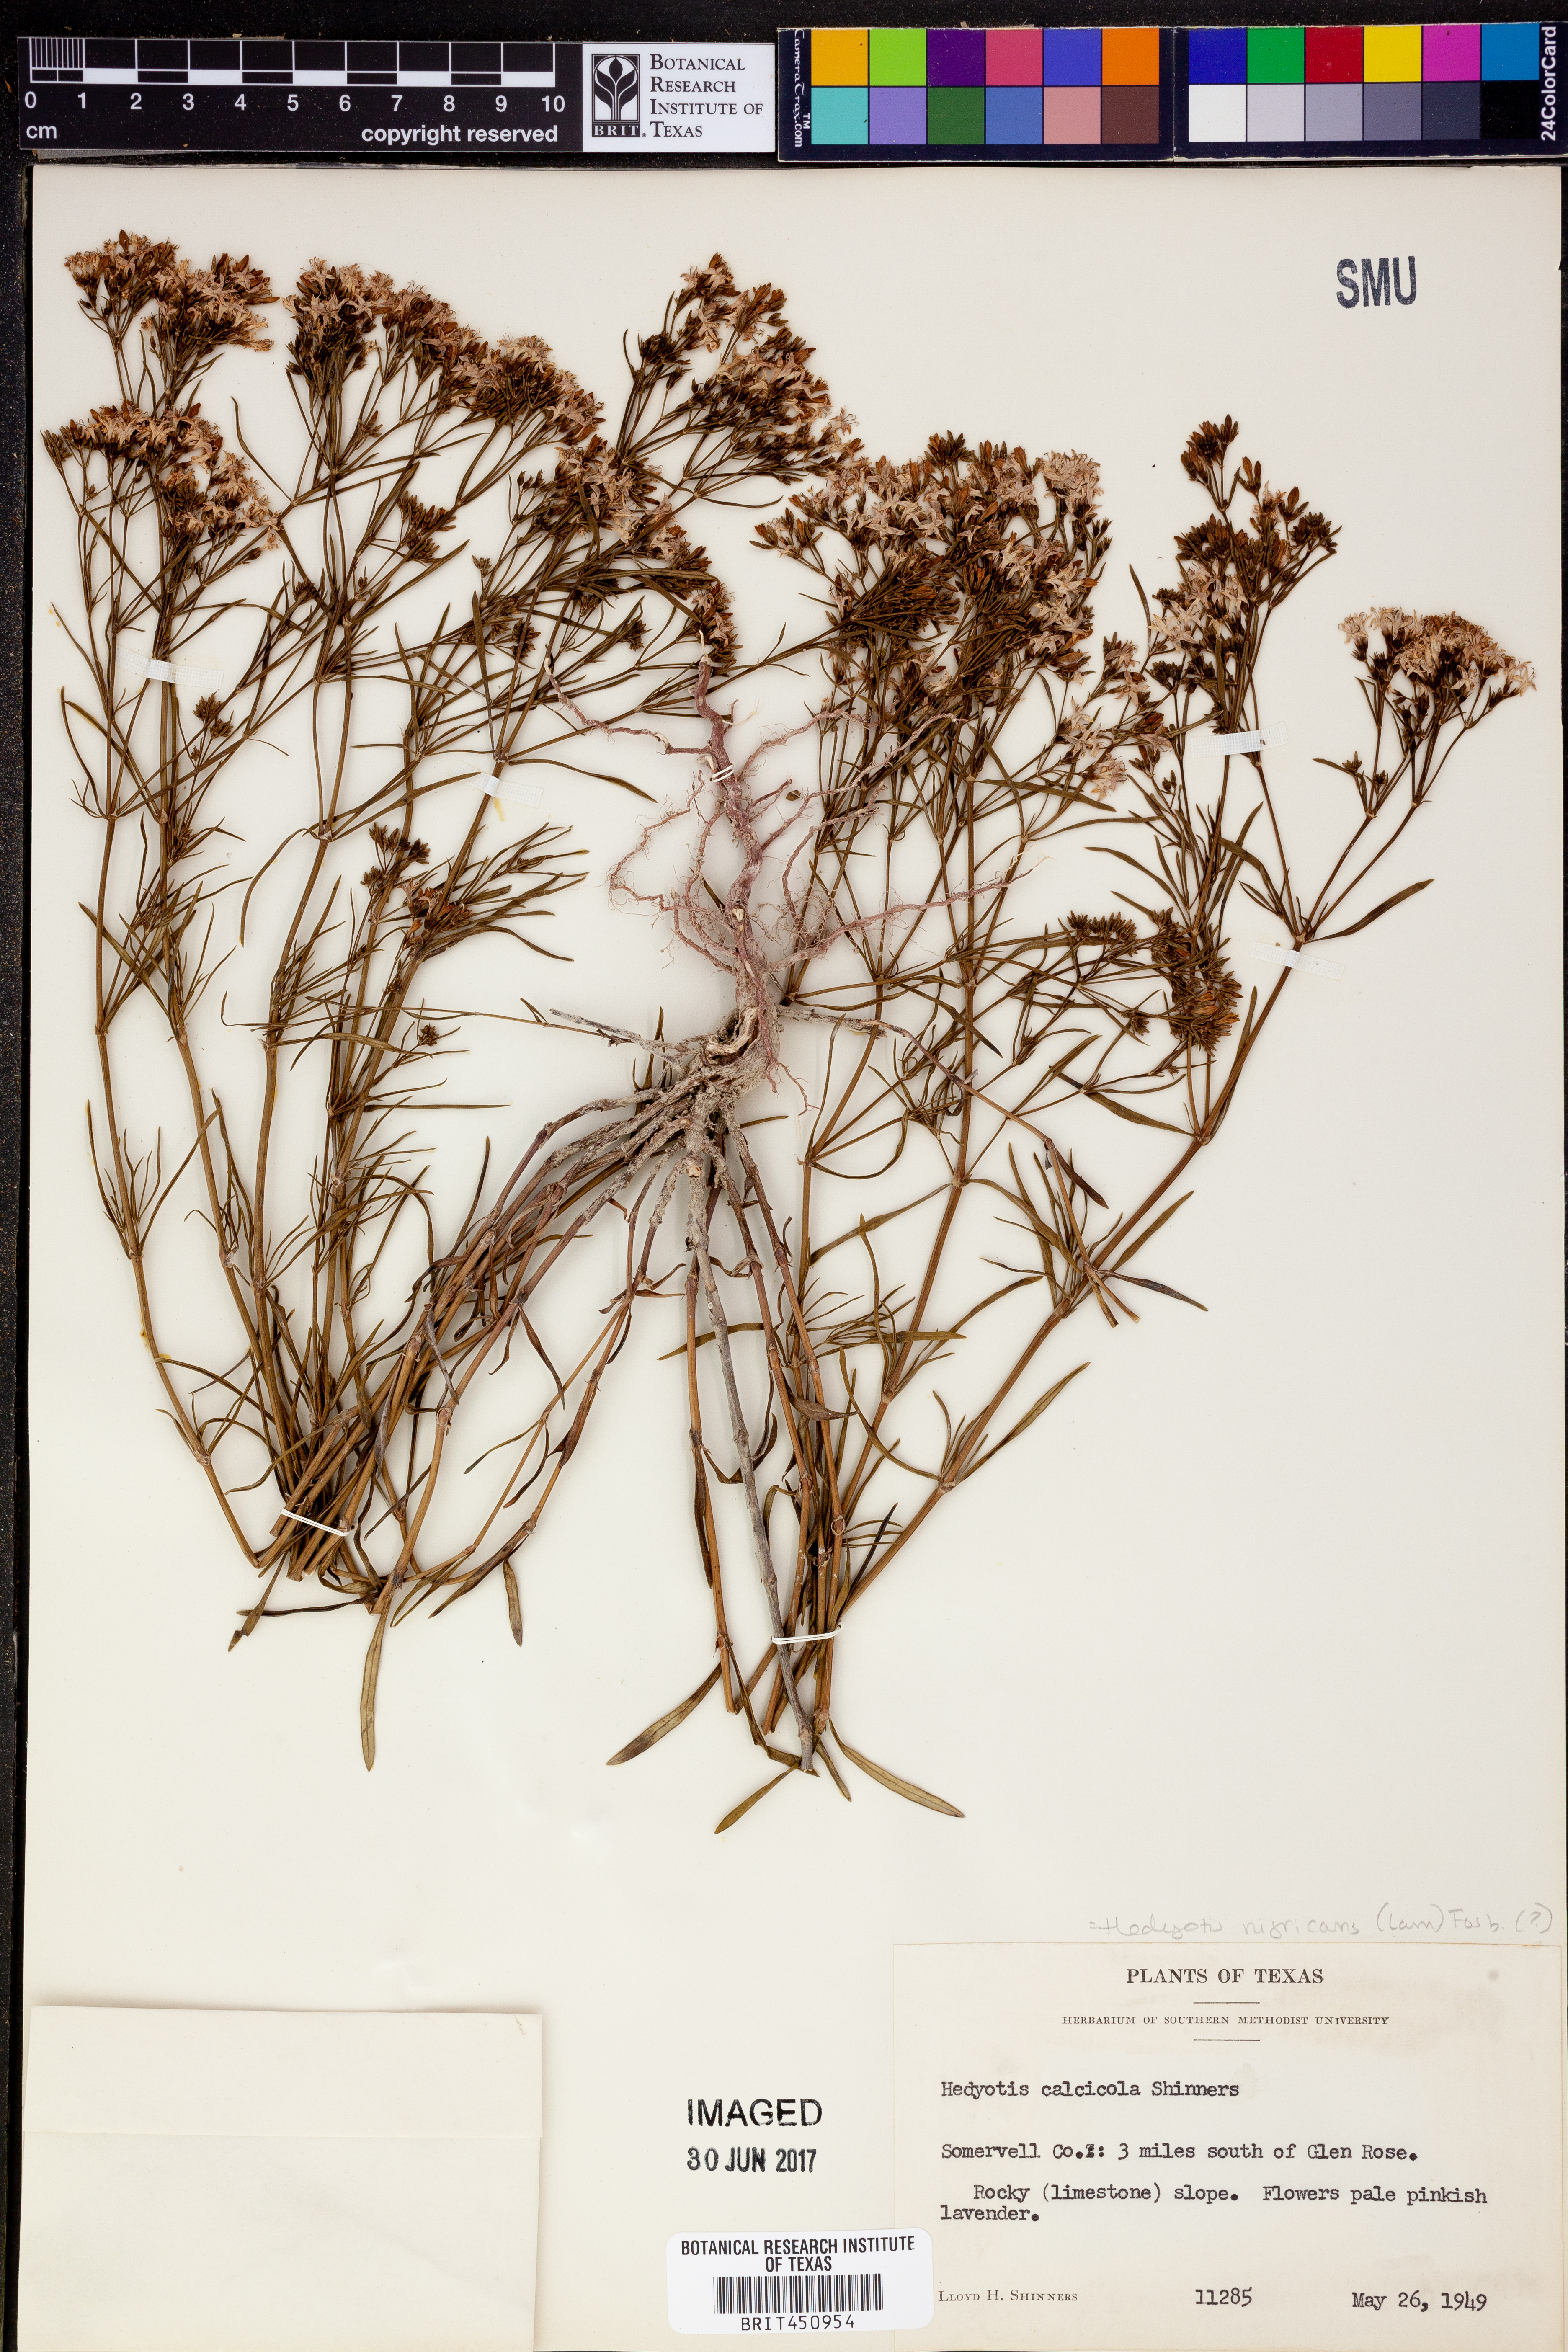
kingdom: Plantae
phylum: Tracheophyta
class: Magnoliopsida
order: Gentianales
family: Rubiaceae
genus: Stenaria
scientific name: Stenaria nigricans
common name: Diamondflowers
